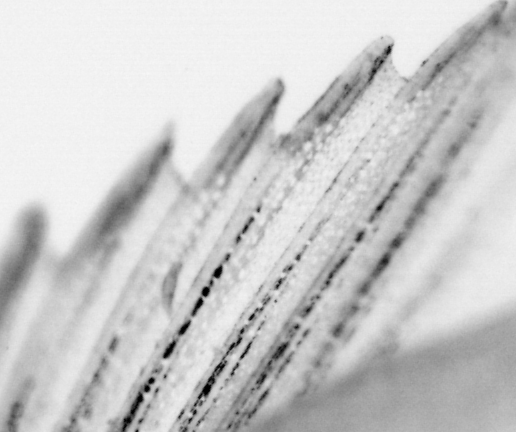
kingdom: Animalia
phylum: Chordata
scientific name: Chordata
